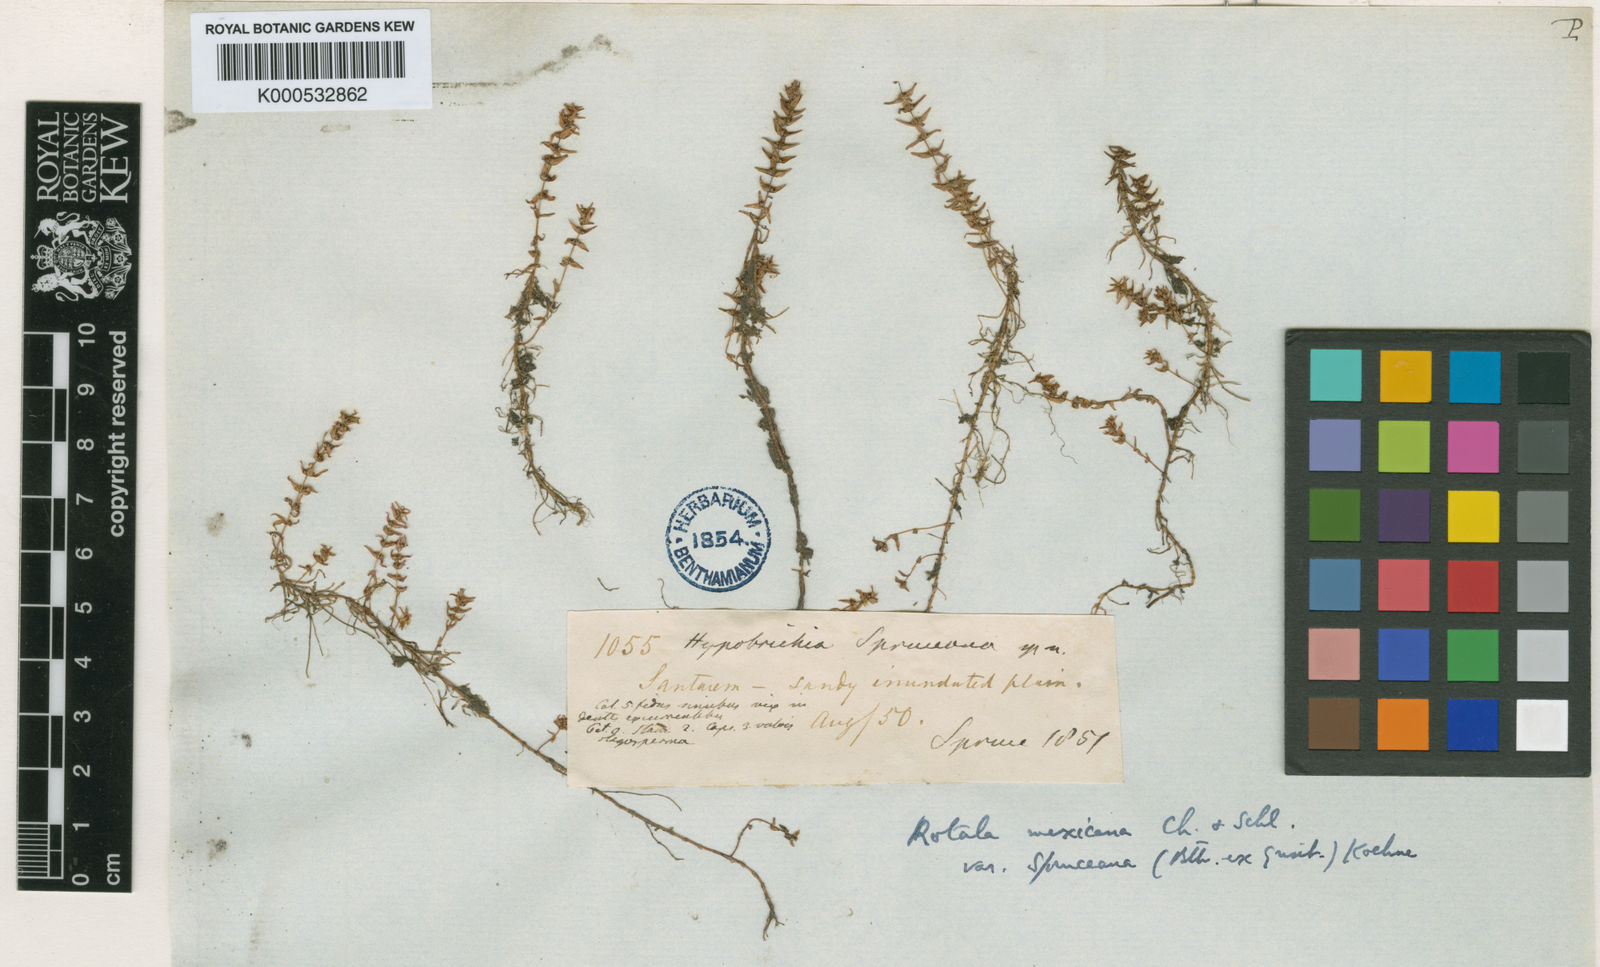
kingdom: Plantae
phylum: Tracheophyta
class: Magnoliopsida
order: Myrtales
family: Lythraceae
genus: Rotala
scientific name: Rotala mexicana
